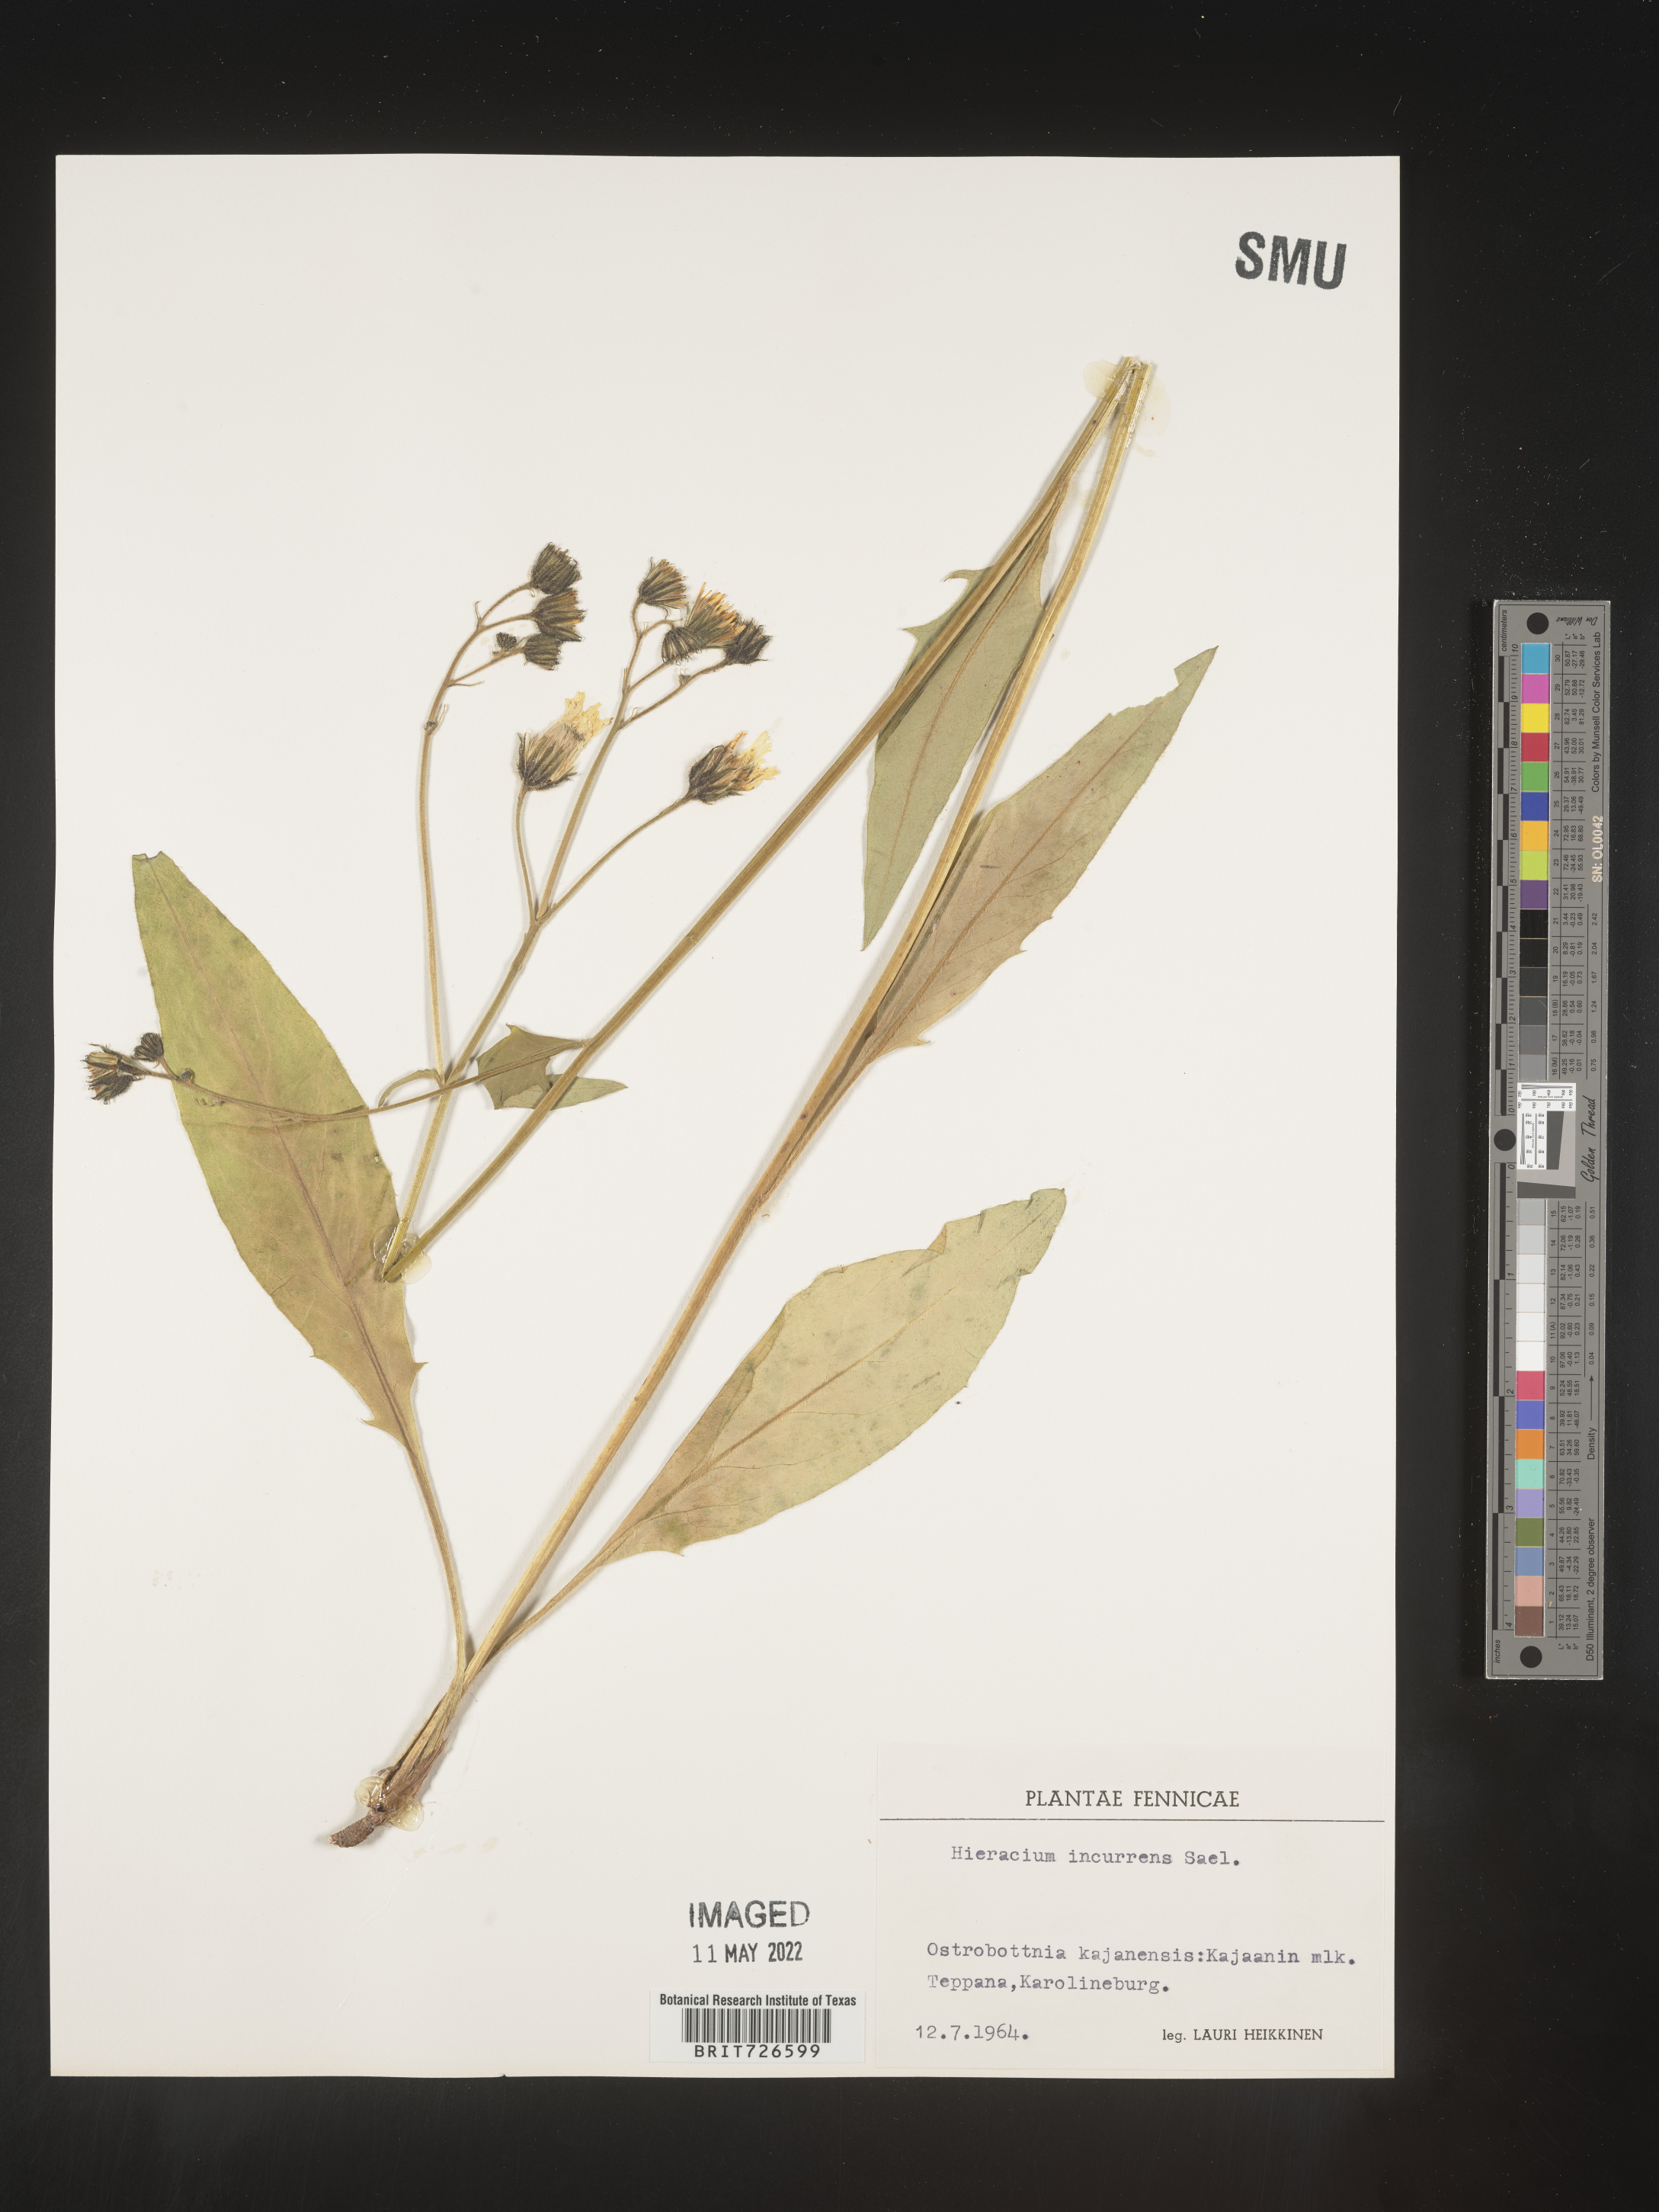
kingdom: Plantae
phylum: Tracheophyta
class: Magnoliopsida
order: Asterales
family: Asteraceae
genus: Hieracium
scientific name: Hieracium
